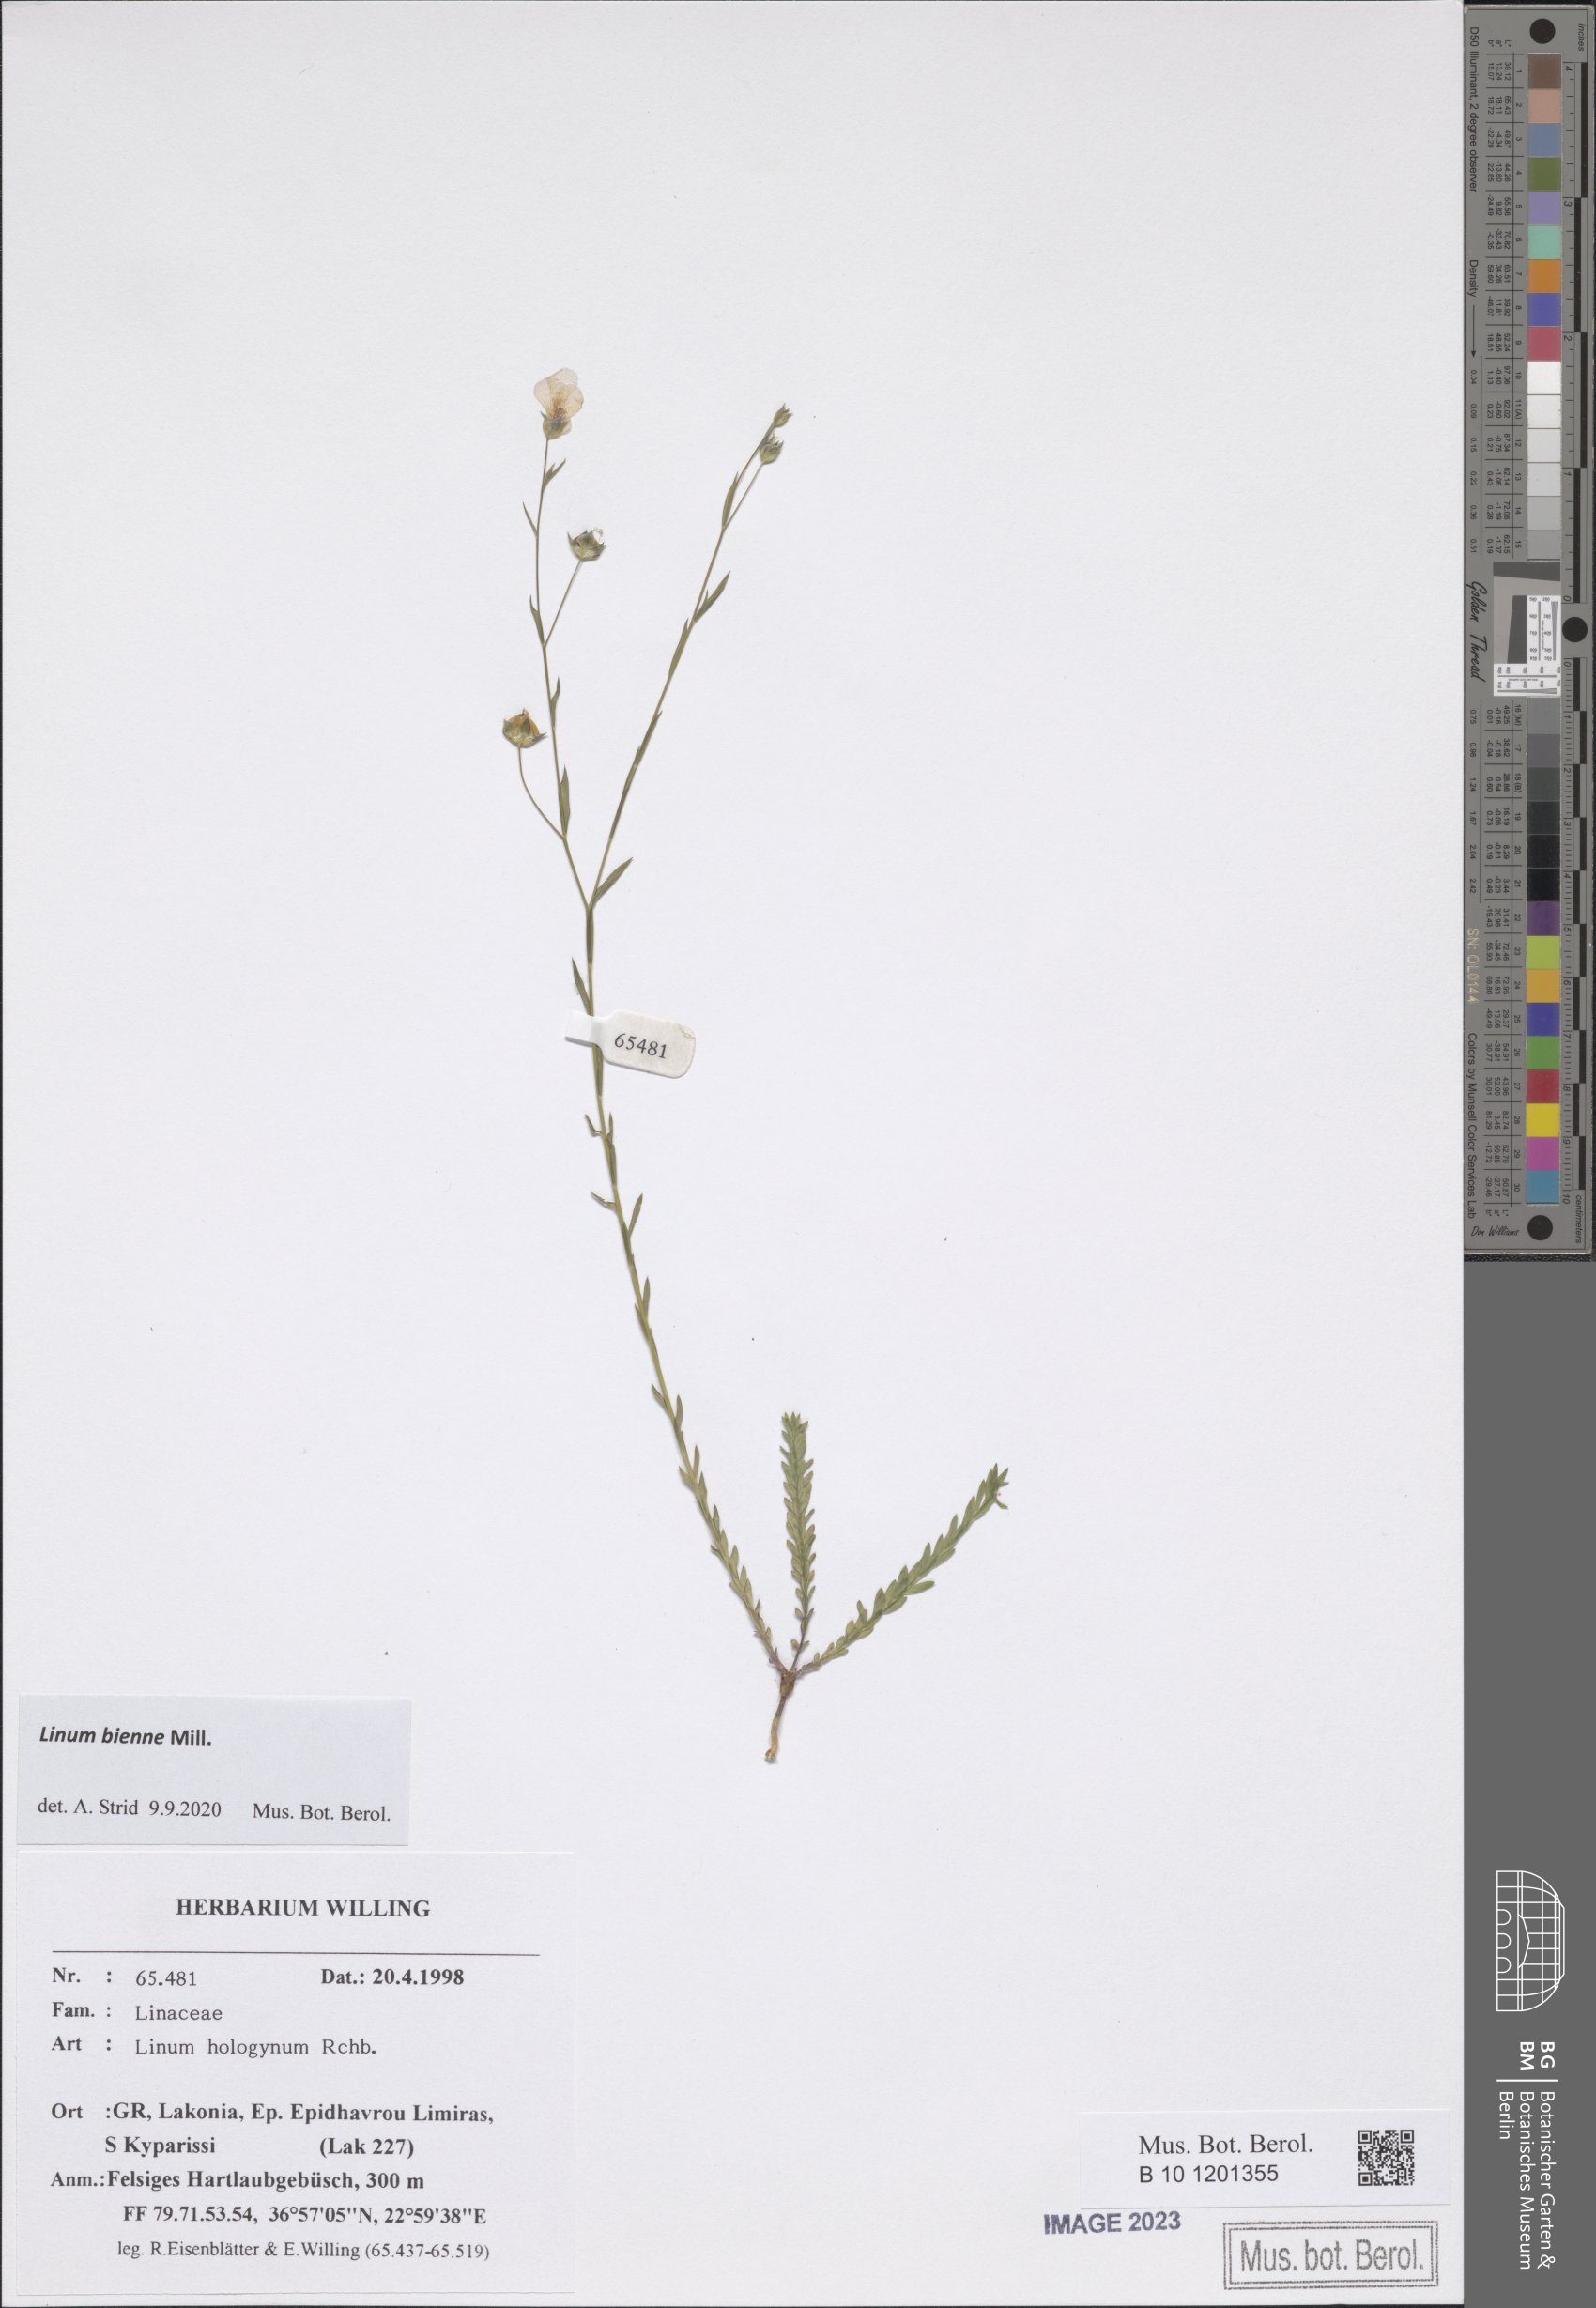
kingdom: Plantae
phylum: Tracheophyta
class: Magnoliopsida
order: Malpighiales
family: Linaceae
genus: Linum
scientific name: Linum bienne
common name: Pale flax
